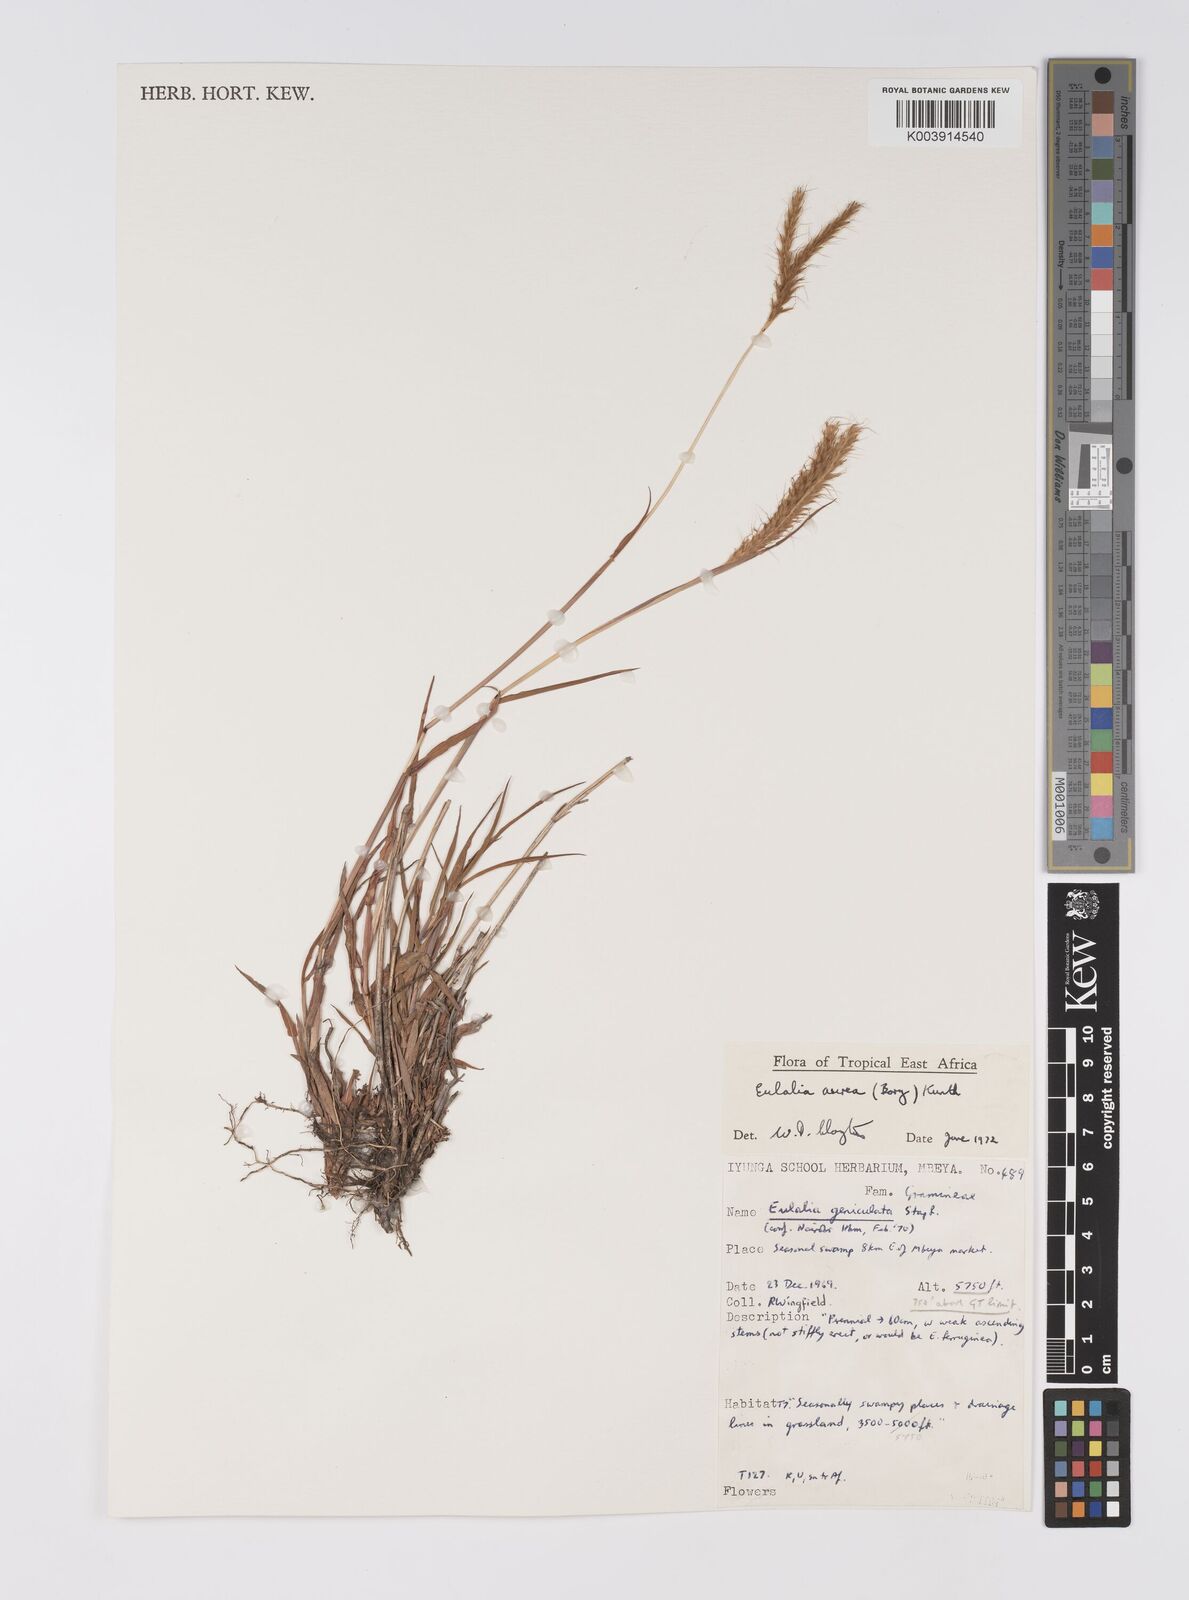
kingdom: Plantae
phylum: Tracheophyta
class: Liliopsida
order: Poales
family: Poaceae
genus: Eulalia
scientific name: Eulalia aurea
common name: Silky browntop
